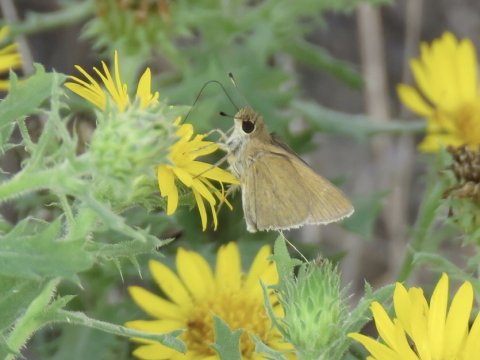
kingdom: Animalia
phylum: Arthropoda
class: Insecta
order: Lepidoptera
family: Hesperiidae
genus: Nastra
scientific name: Nastra julia
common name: Julia's Skipper
